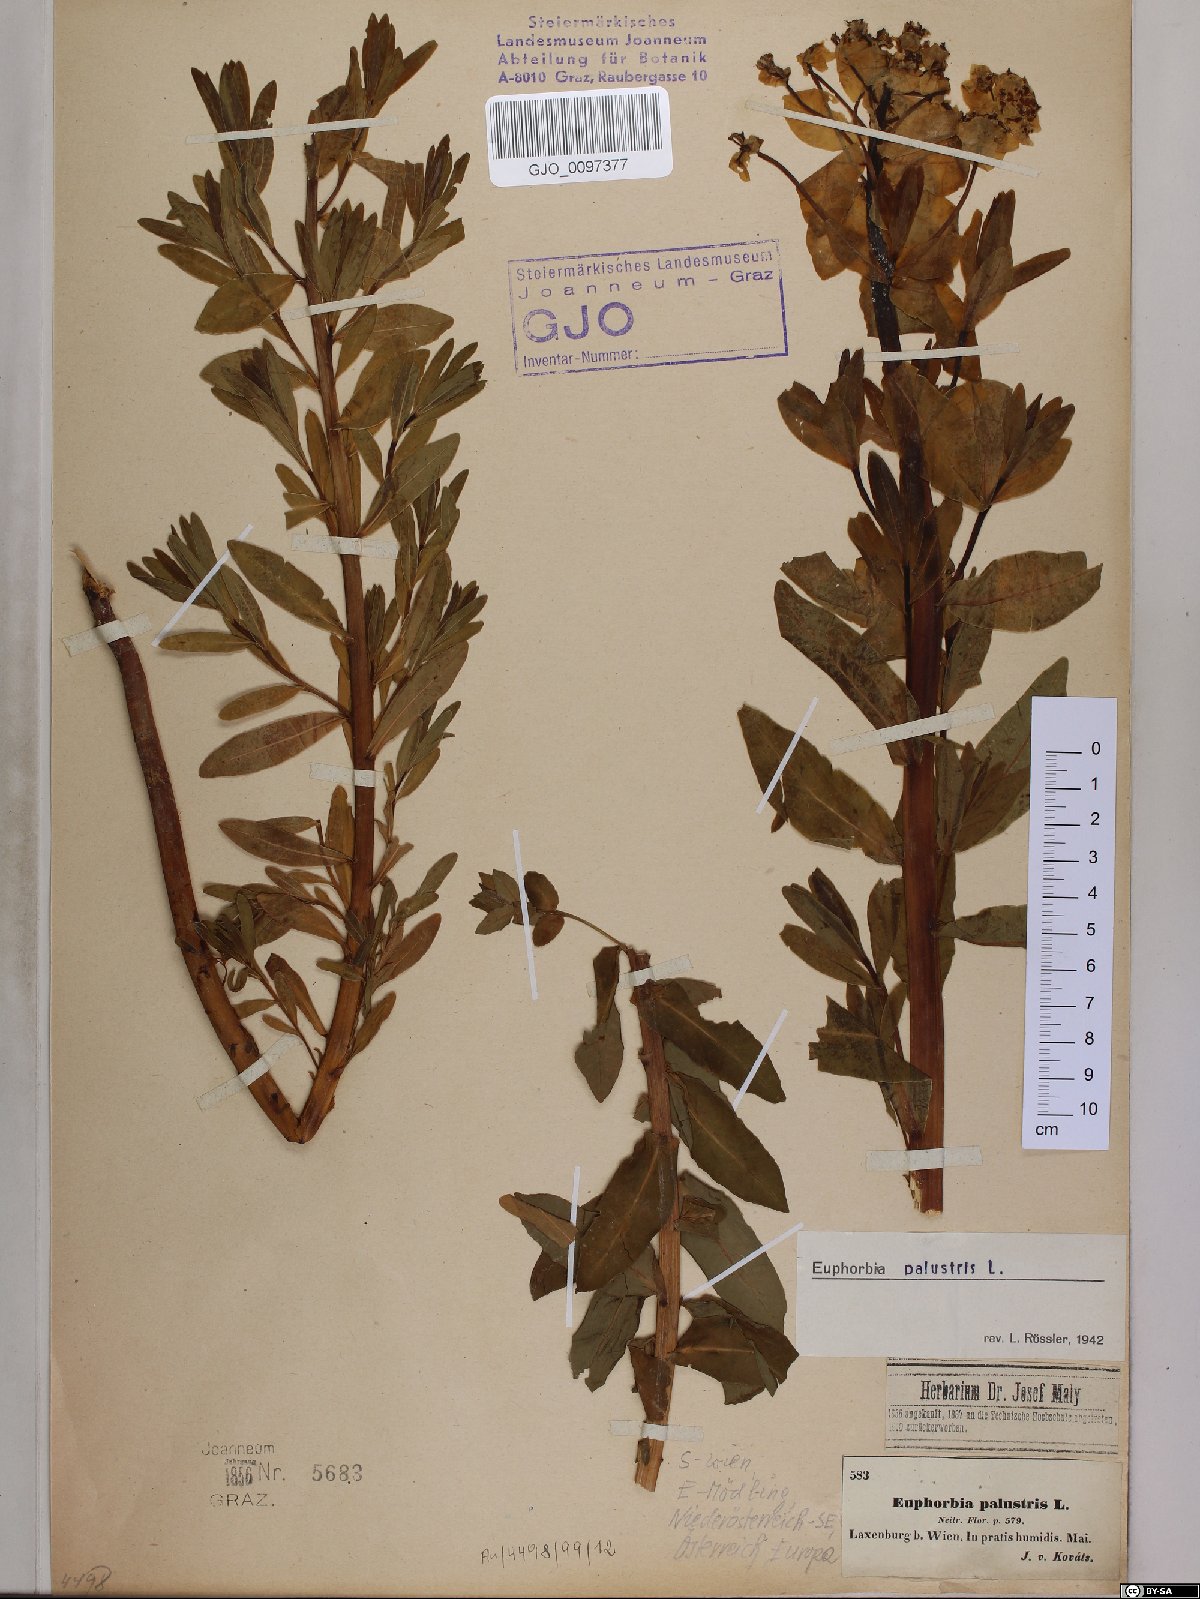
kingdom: Plantae
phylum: Tracheophyta
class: Magnoliopsida
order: Malpighiales
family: Euphorbiaceae
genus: Euphorbia
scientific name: Euphorbia palustris
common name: Marsh spurge
